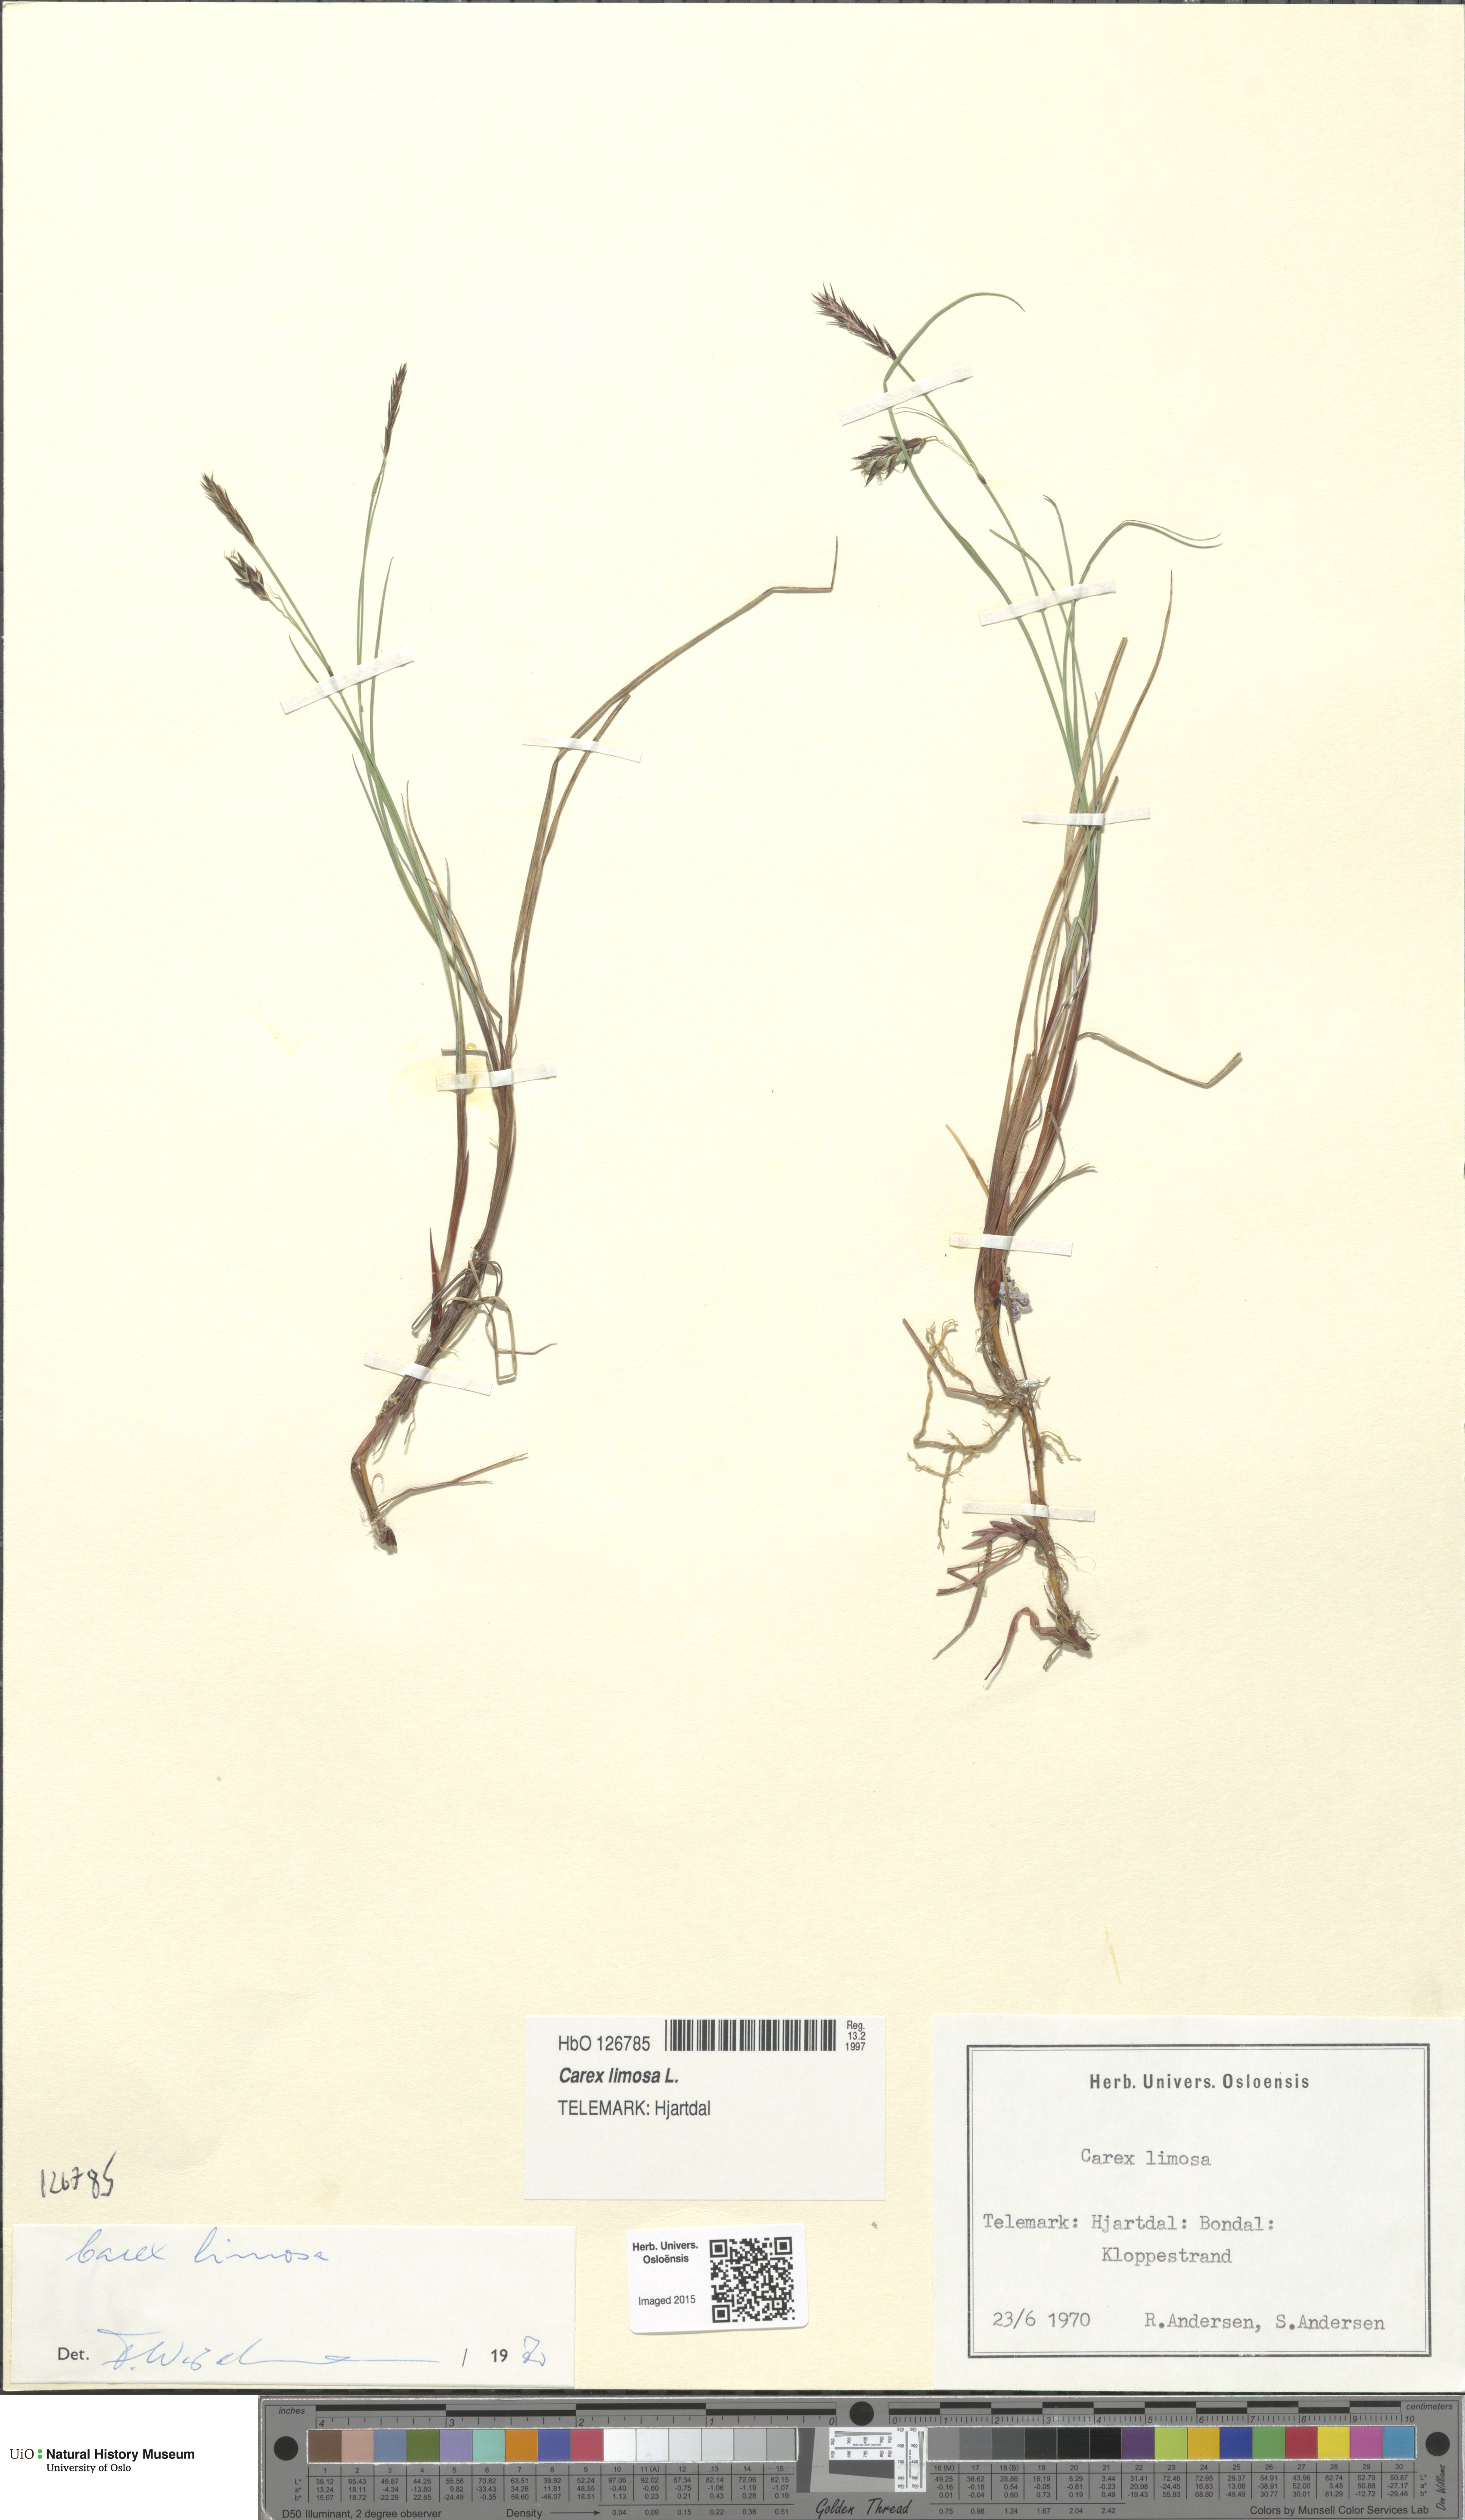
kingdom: Plantae
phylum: Tracheophyta
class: Liliopsida
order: Poales
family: Cyperaceae
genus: Carex
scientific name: Carex limosa
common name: Bog sedge
